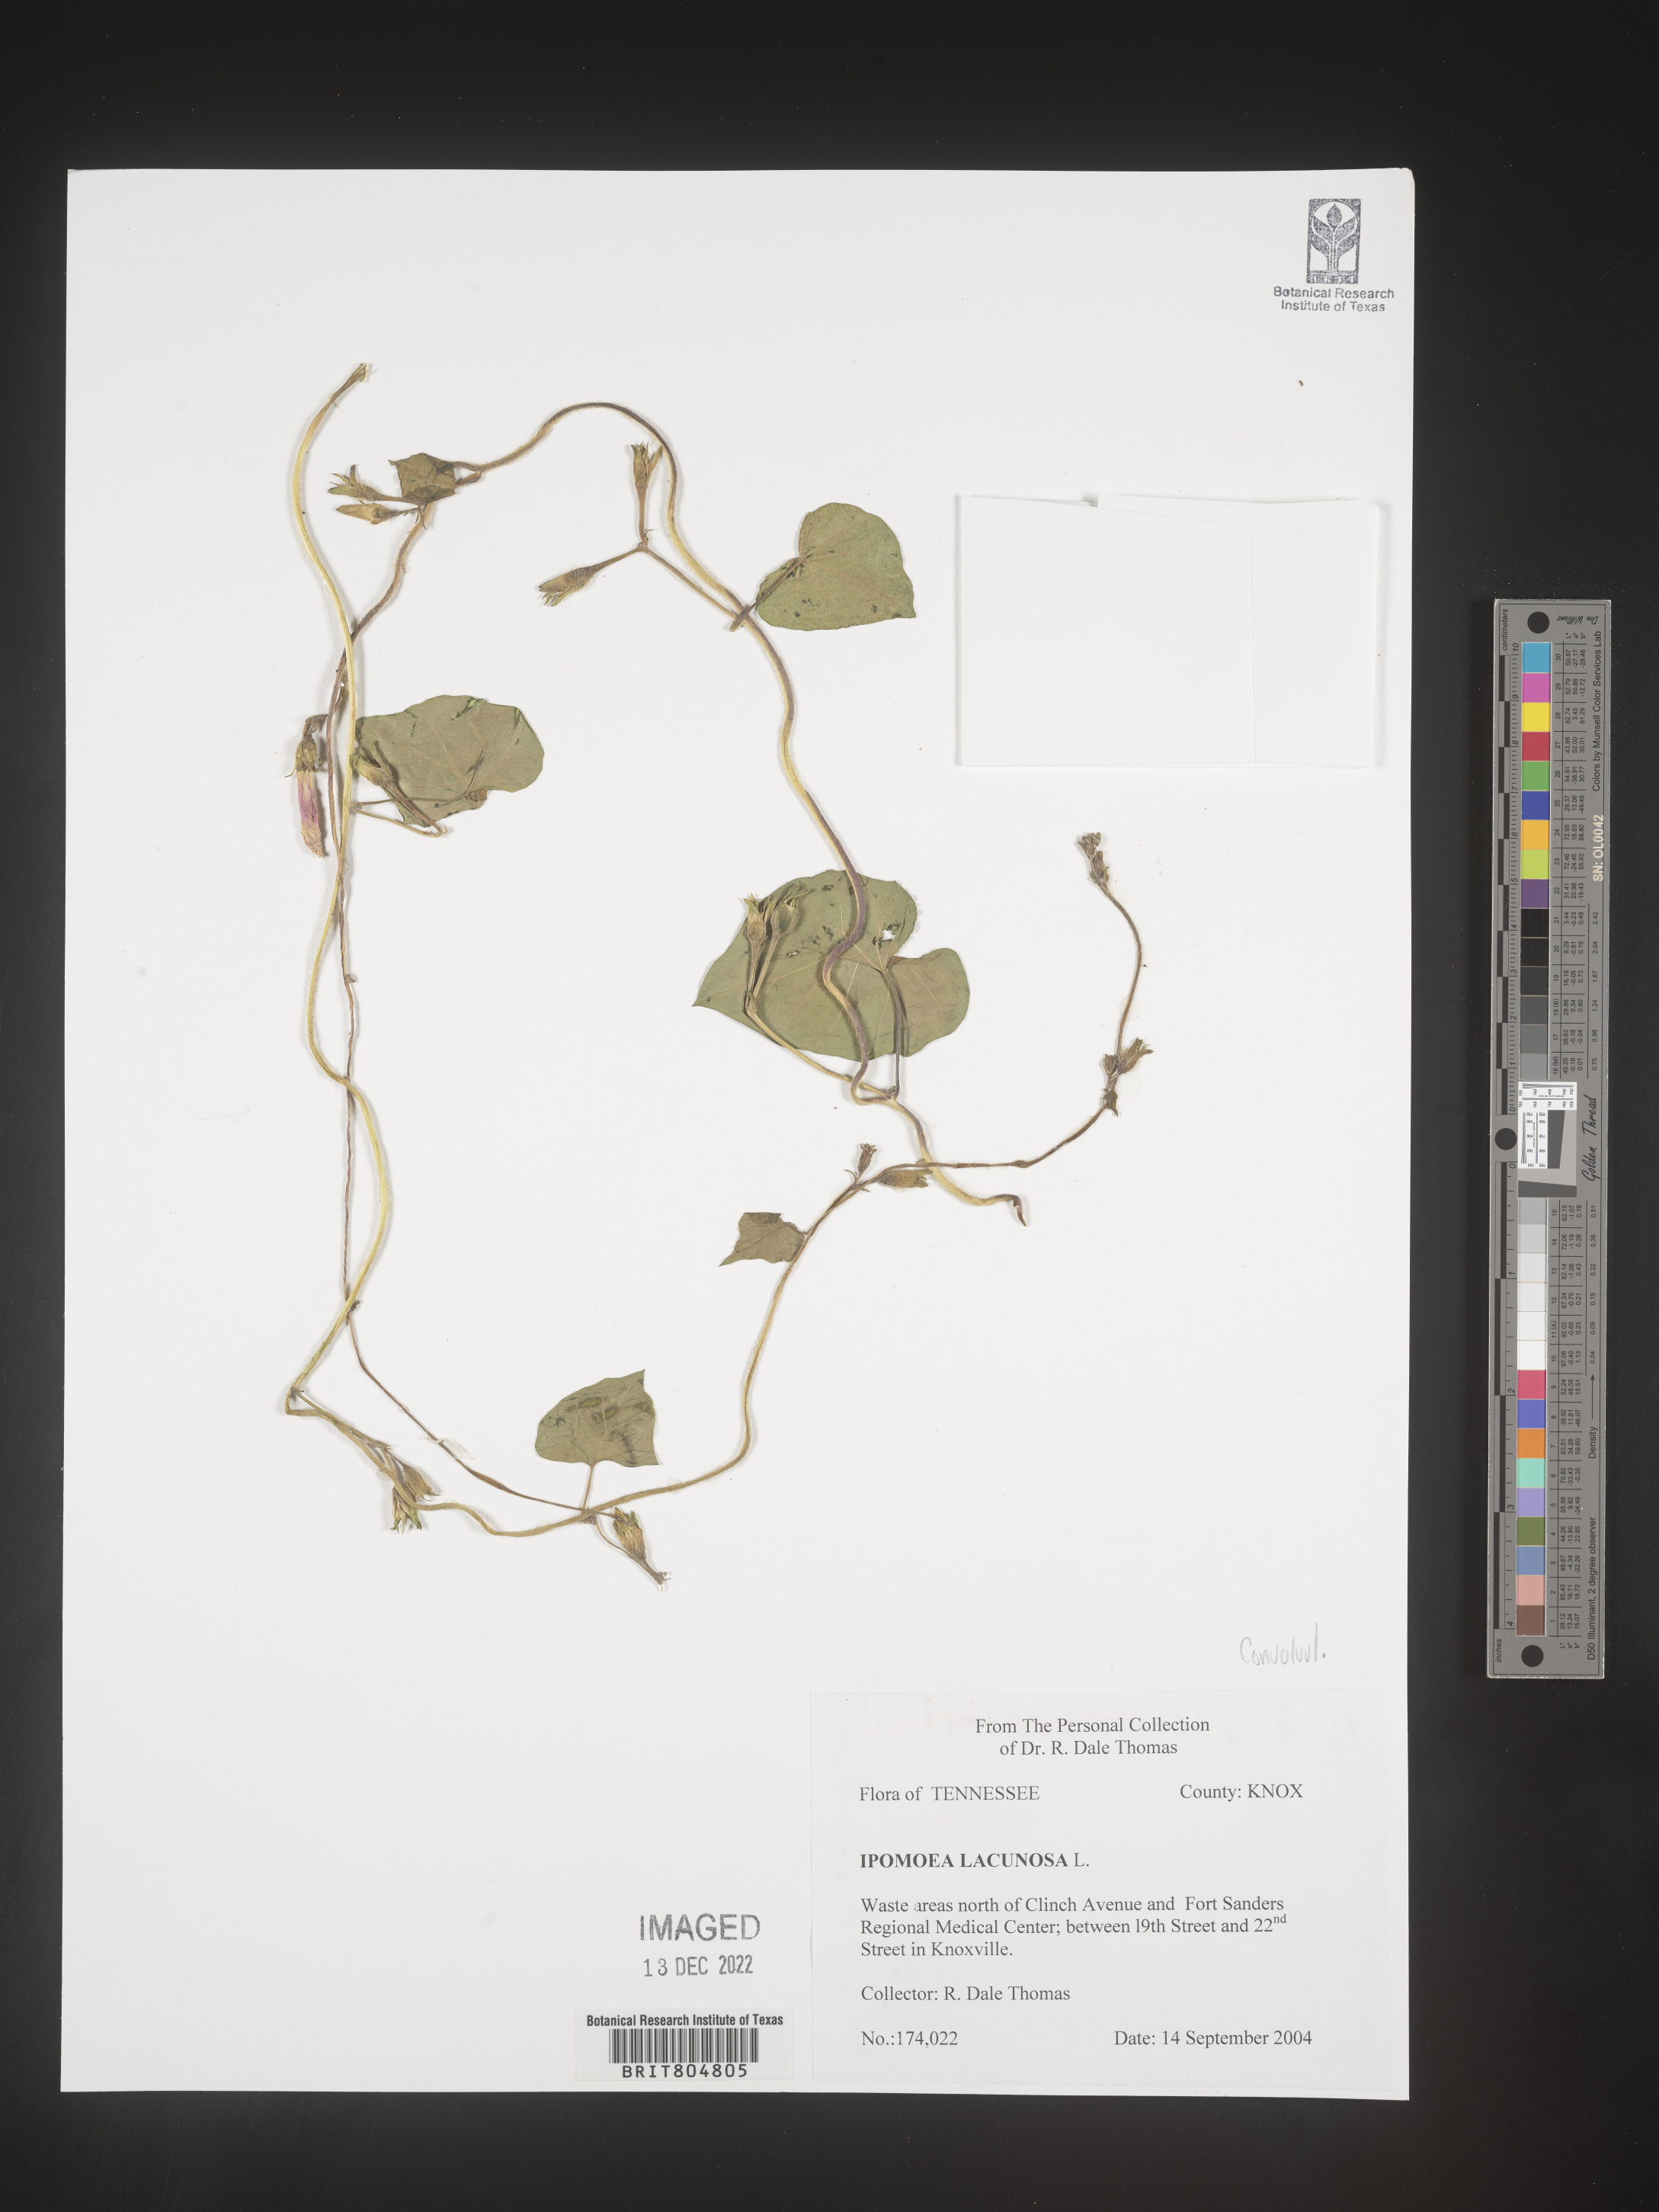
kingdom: Plantae
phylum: Tracheophyta
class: Magnoliopsida
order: Solanales
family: Convolvulaceae
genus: Ipomoea
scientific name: Ipomoea lacunosa
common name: White morning-glory
